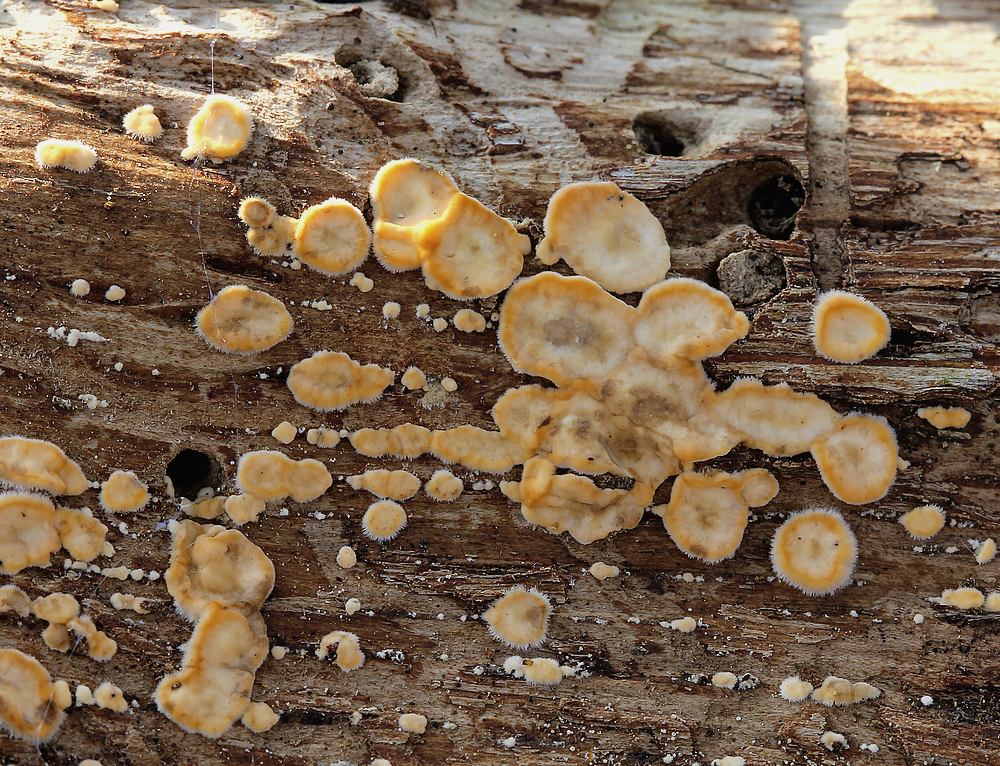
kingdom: Fungi
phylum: Basidiomycota
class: Agaricomycetes
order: Russulales
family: Stereaceae
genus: Stereum
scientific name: Stereum hirsutum
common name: håret lædersvamp
